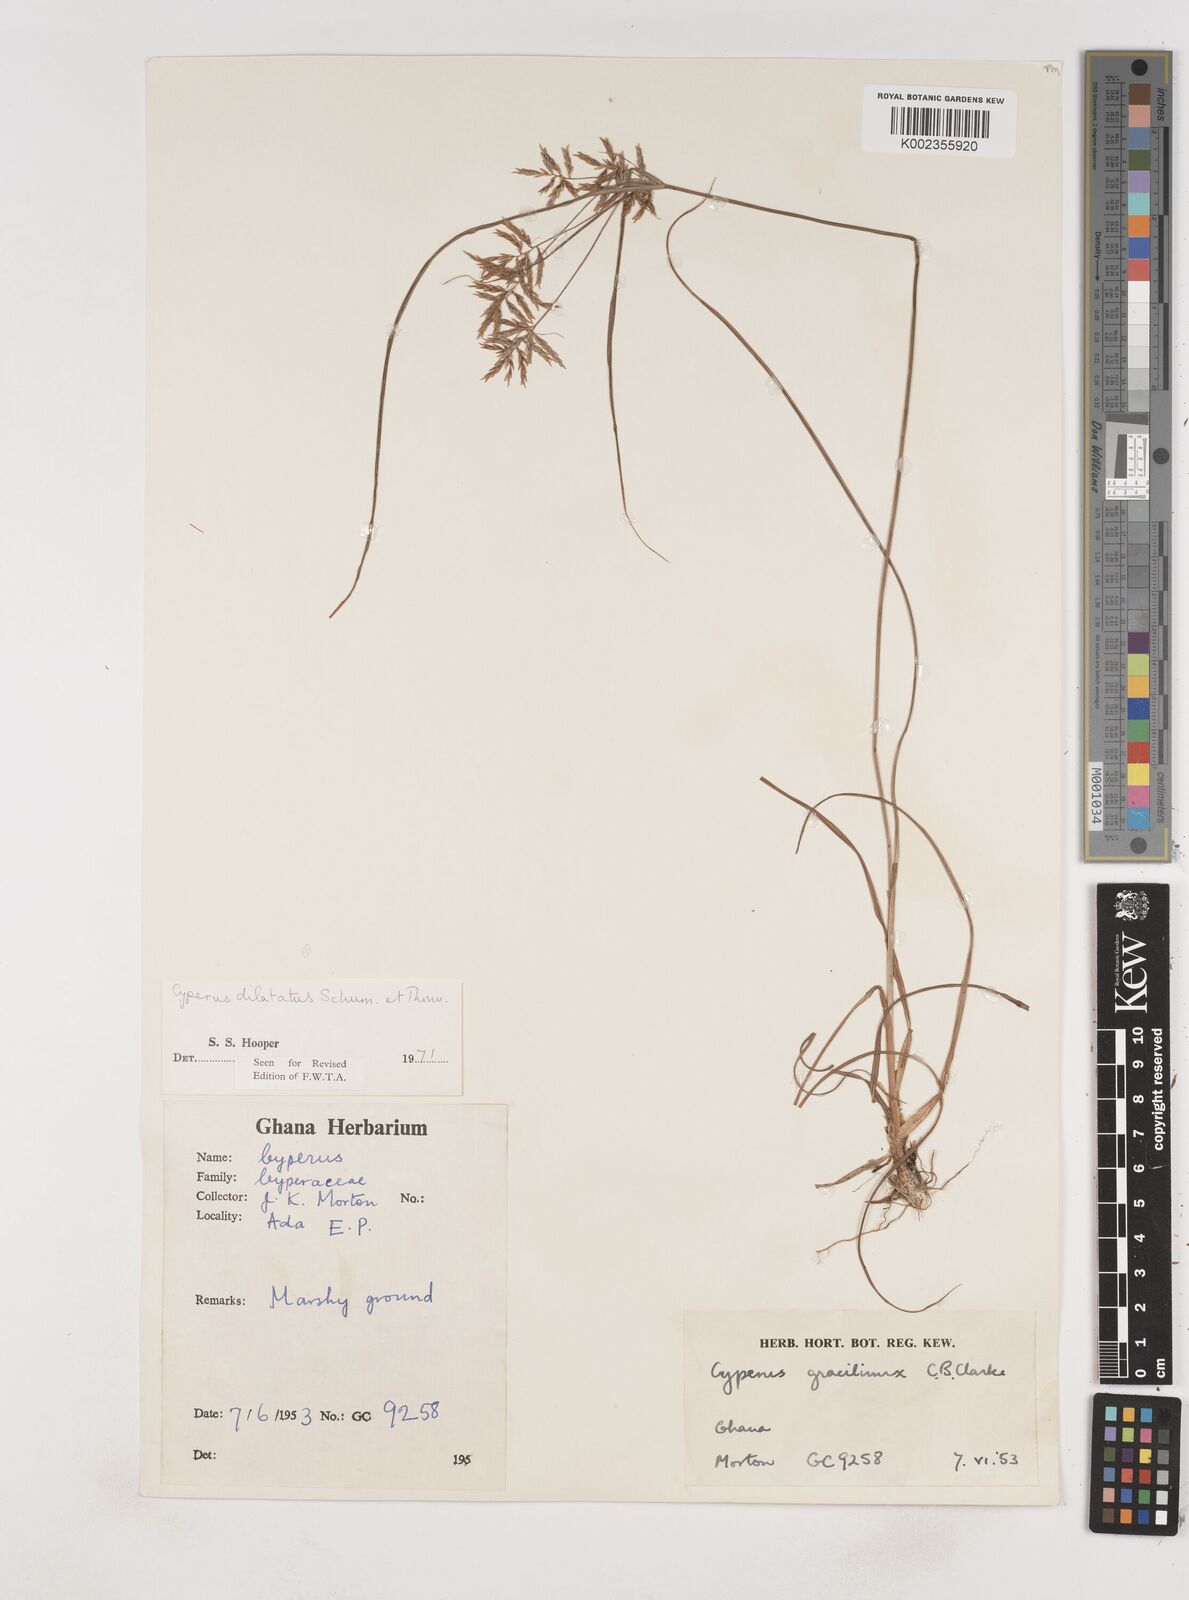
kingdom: Plantae
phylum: Tracheophyta
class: Liliopsida
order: Poales
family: Cyperaceae
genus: Cyperus
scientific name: Cyperus dilatatus
